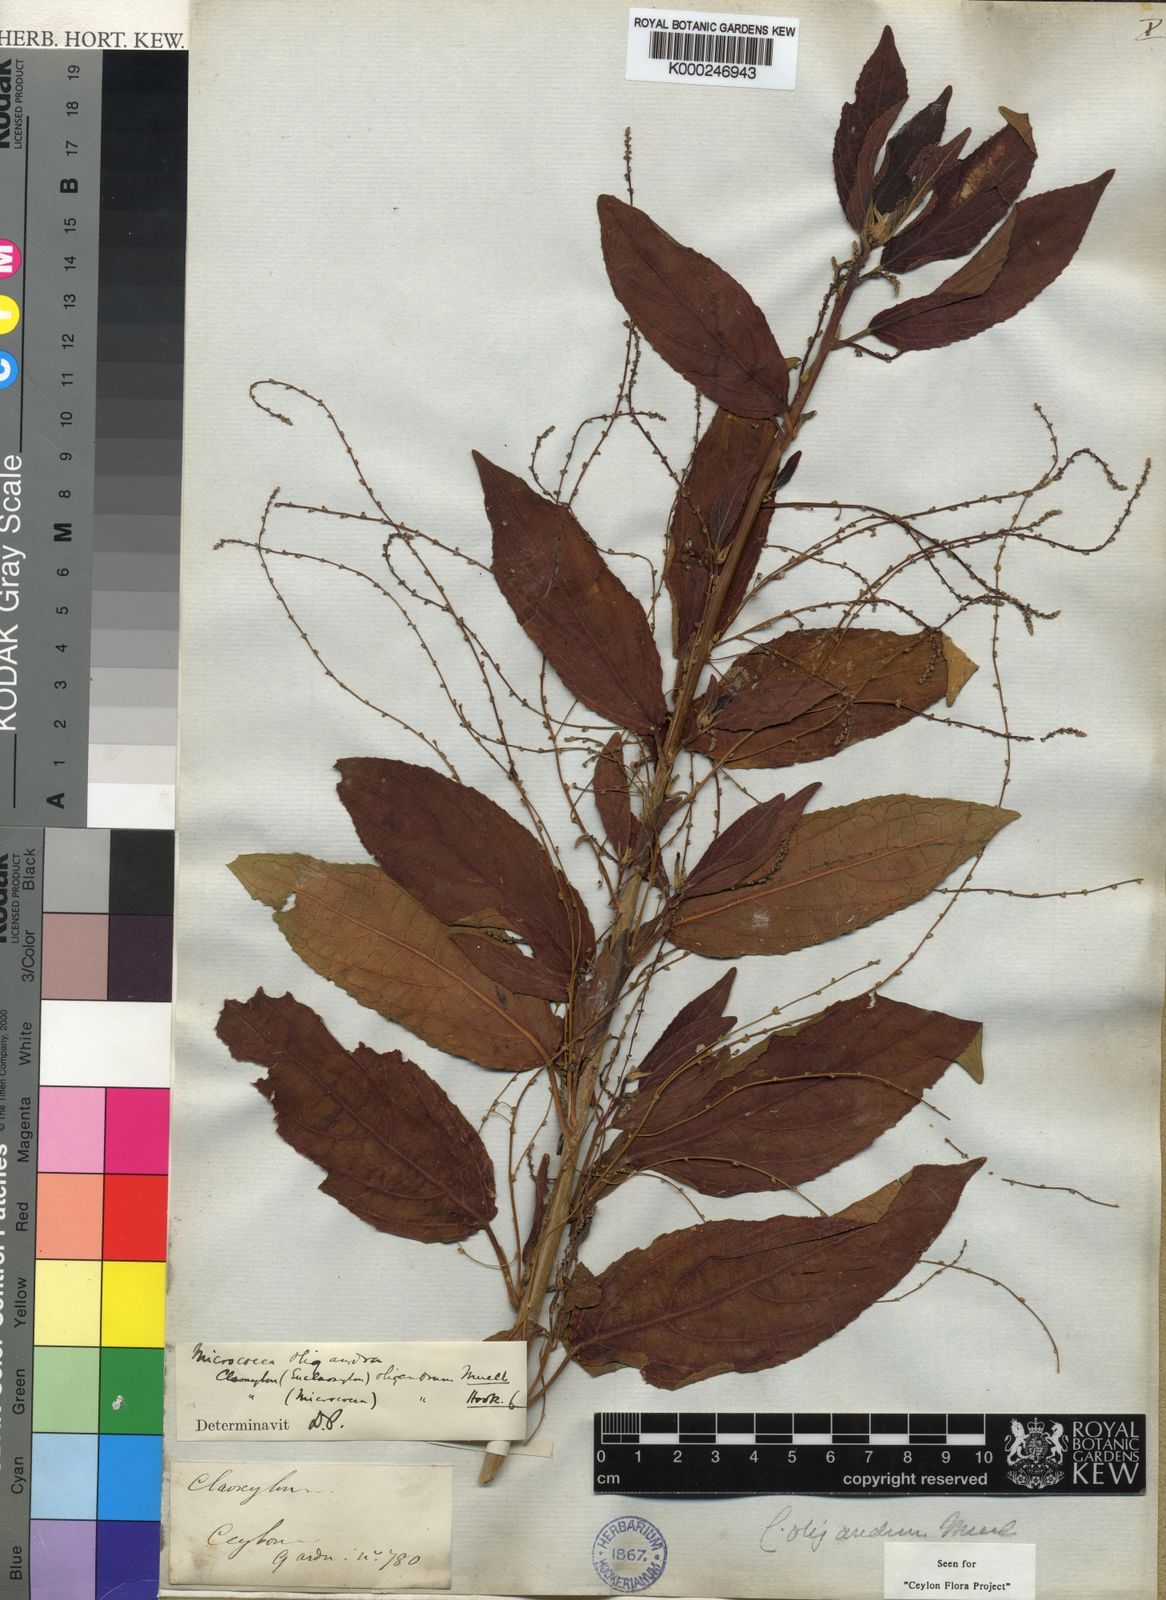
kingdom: Plantae
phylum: Tracheophyta
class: Magnoliopsida
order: Malpighiales
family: Euphorbiaceae
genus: Micrococca
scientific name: Micrococca
